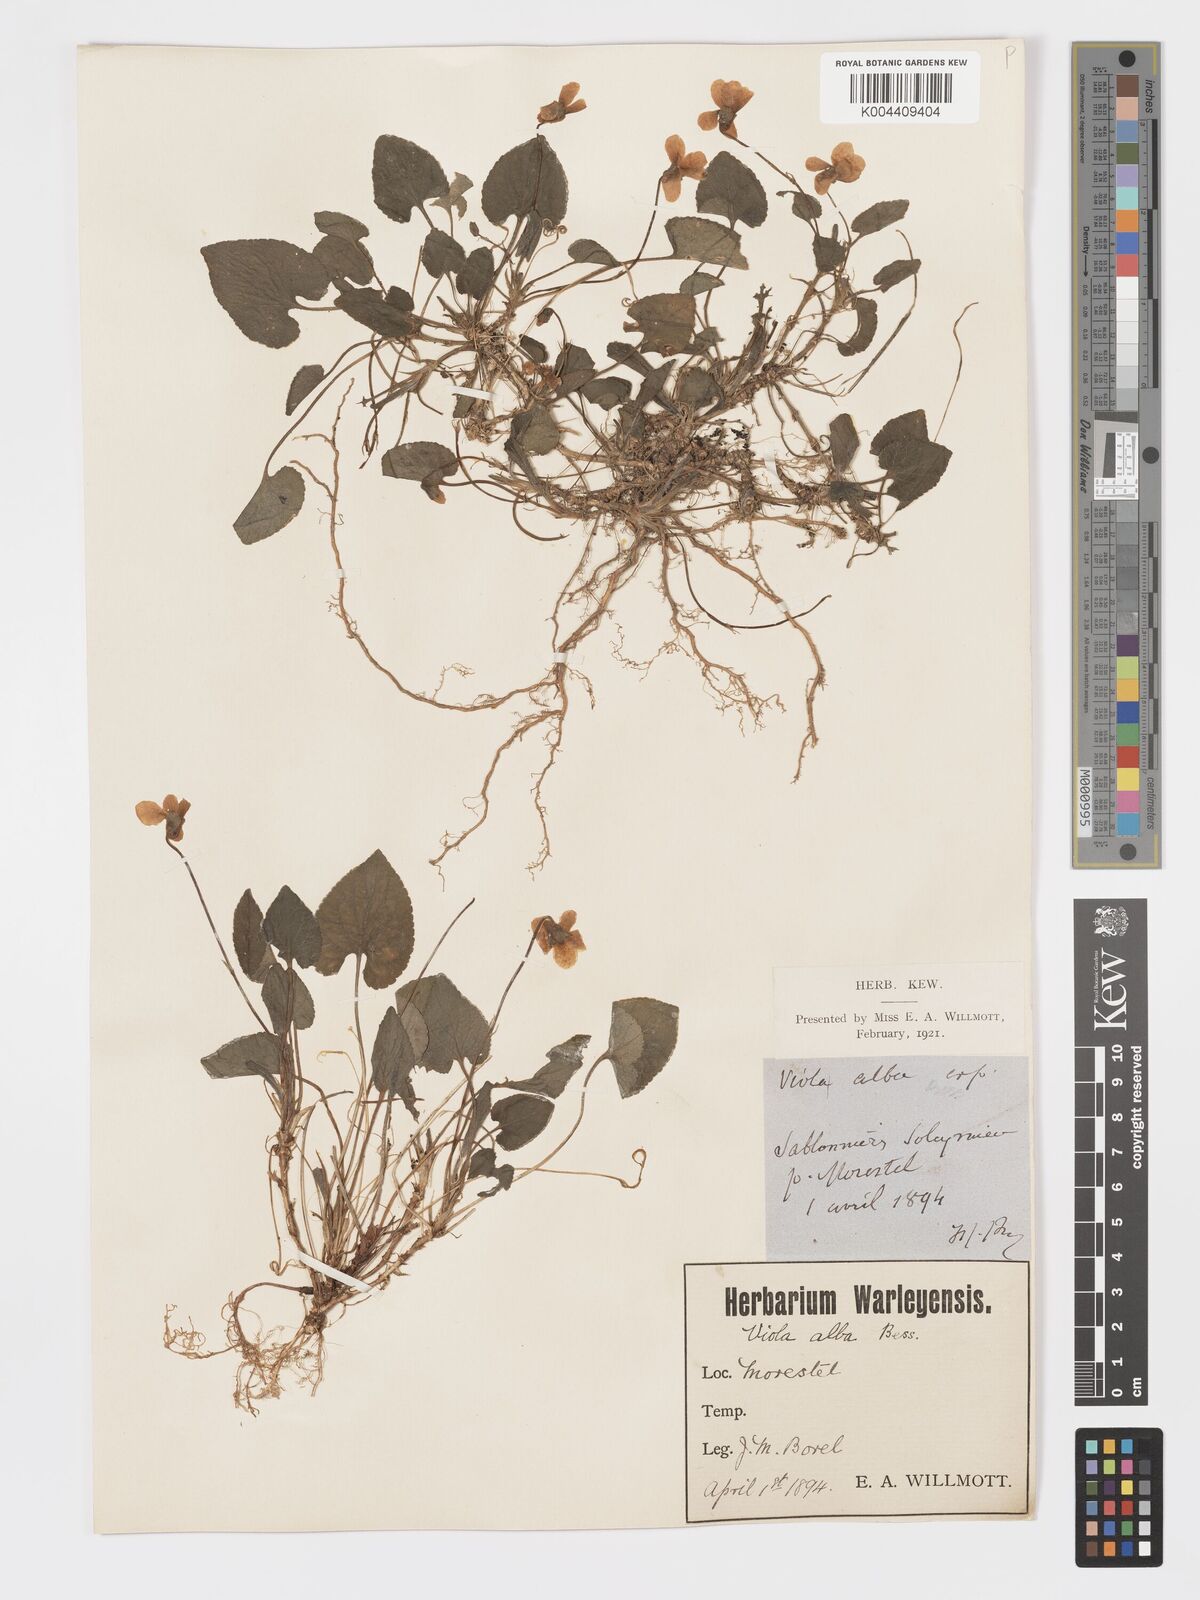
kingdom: Plantae
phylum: Tracheophyta
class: Magnoliopsida
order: Malpighiales
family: Violaceae
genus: Viola
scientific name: Viola alba
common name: White violet
